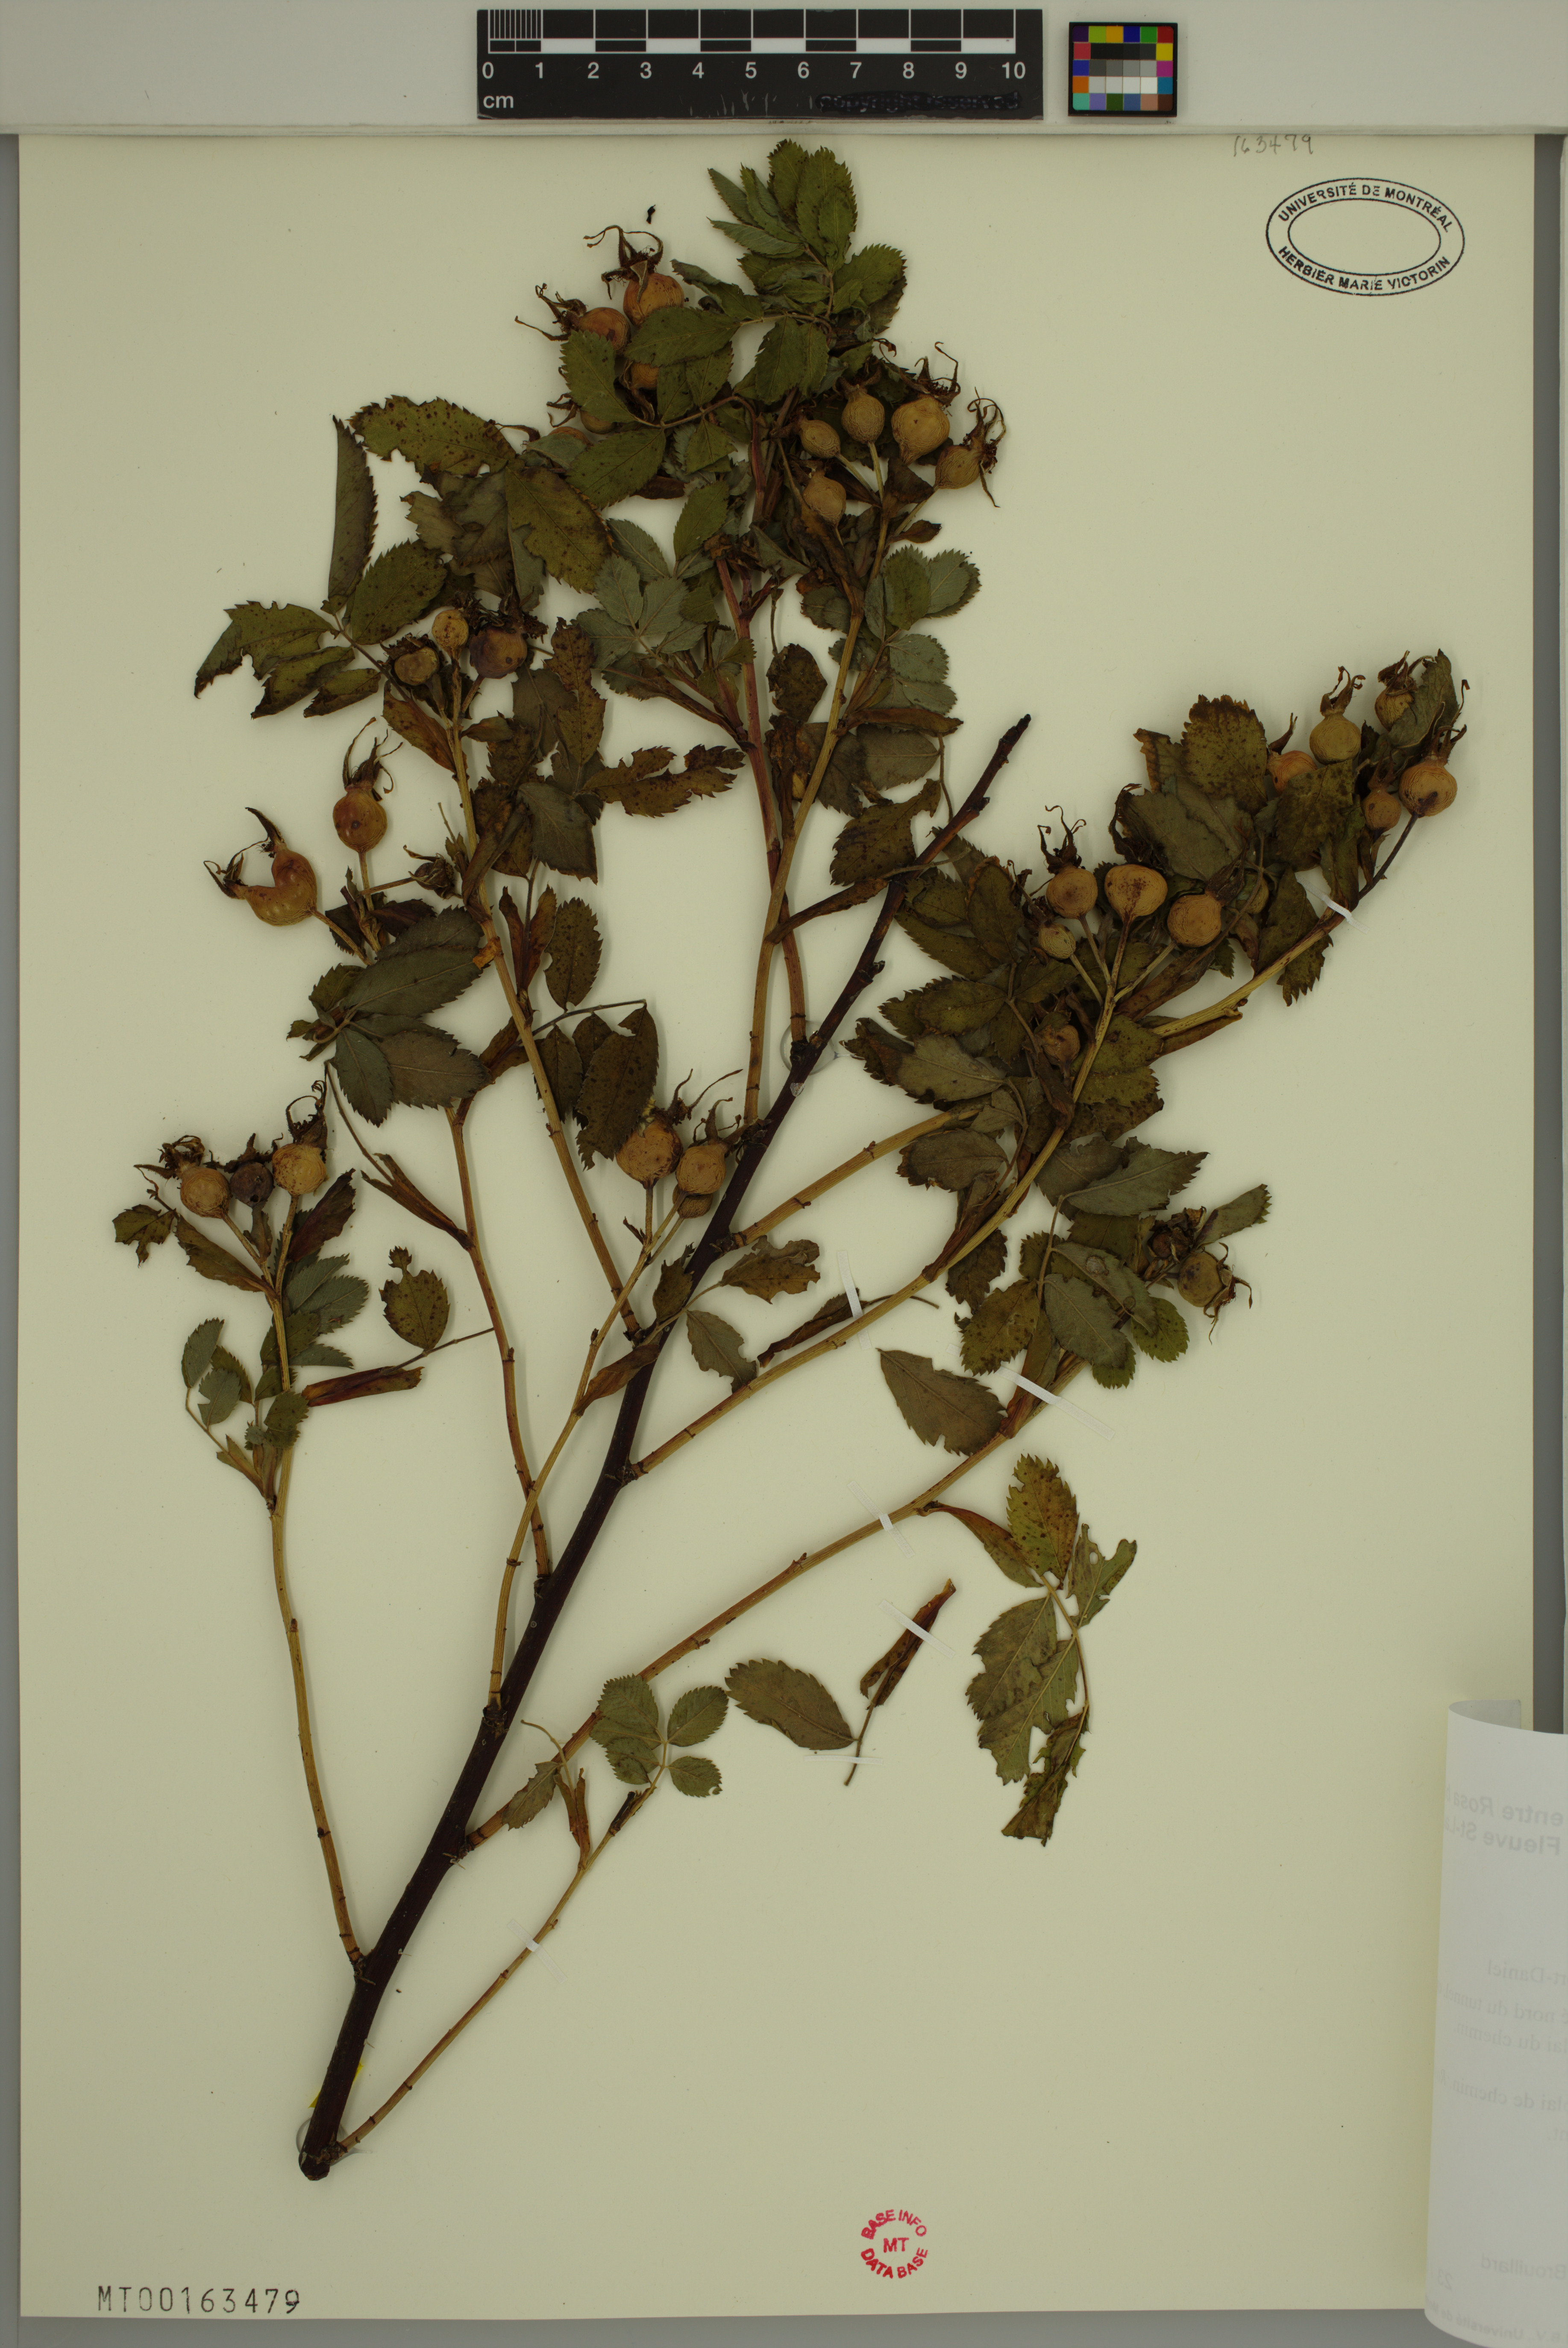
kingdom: Plantae
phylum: Tracheophyta
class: Magnoliopsida
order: Rosales
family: Rosaceae
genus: Rosa
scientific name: Rosa blanda
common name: Smooth rose
